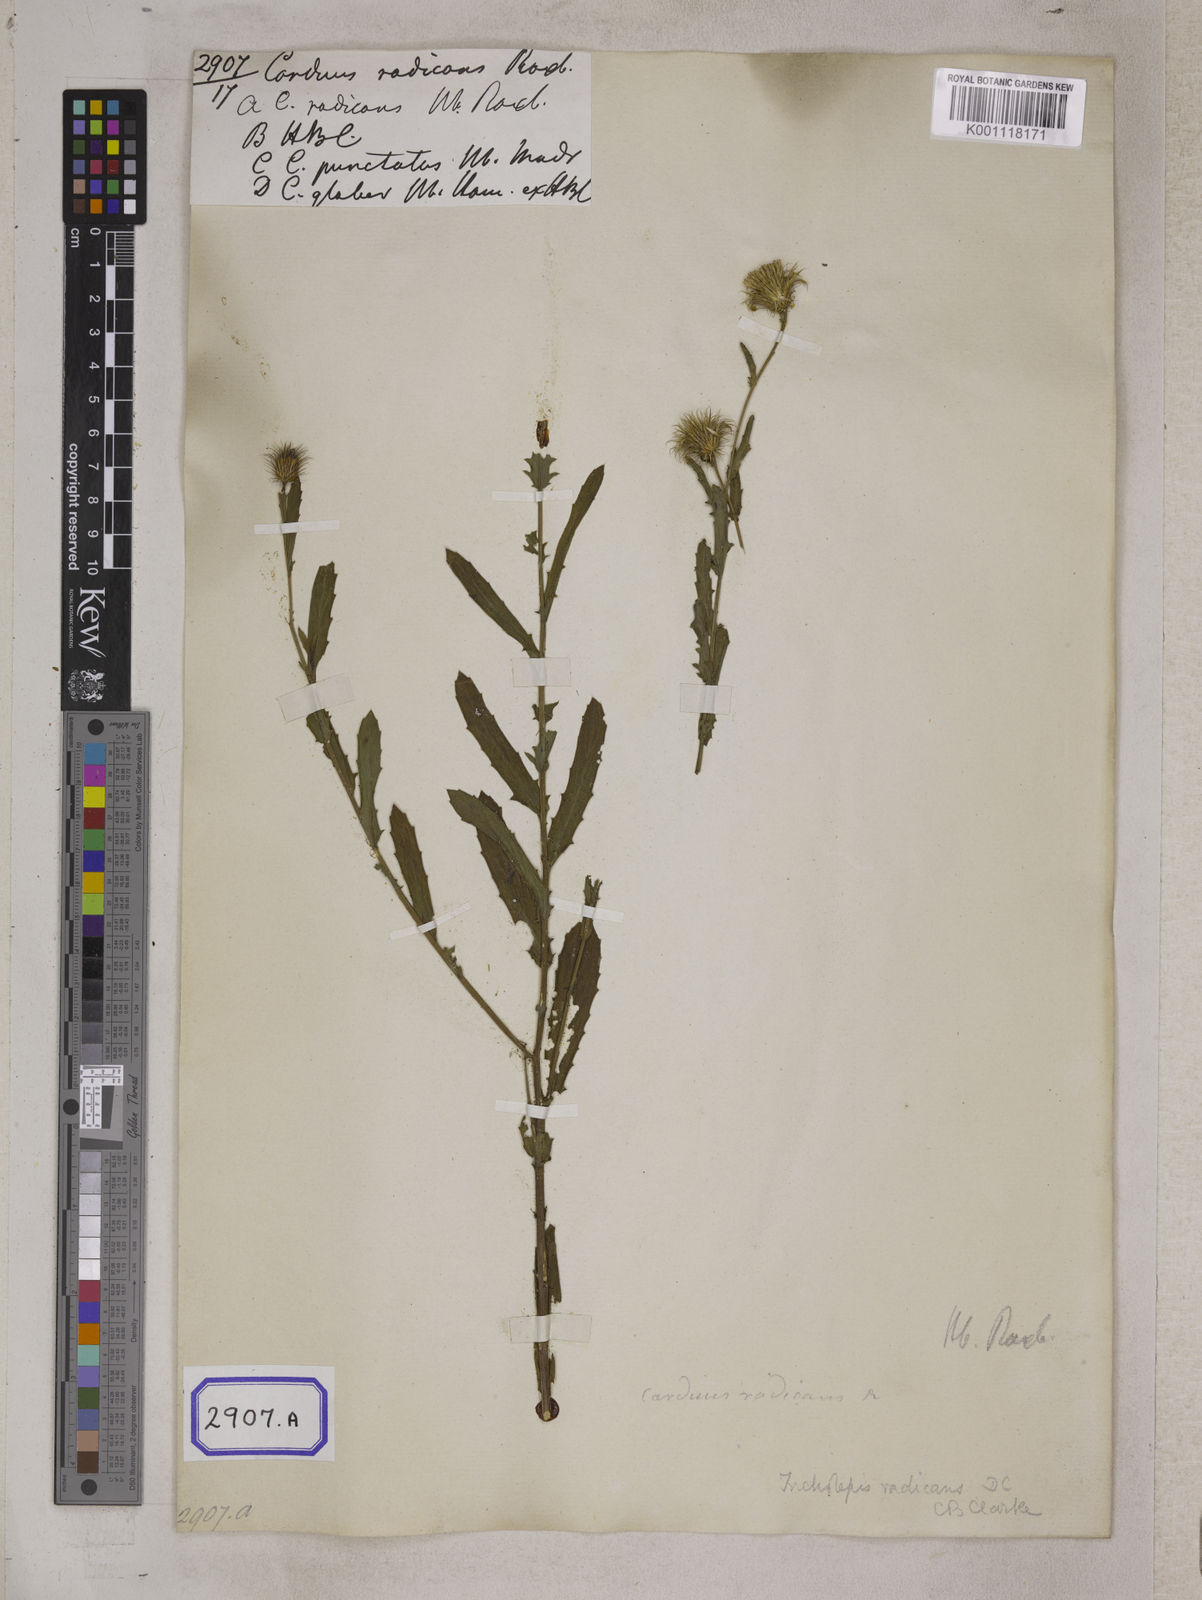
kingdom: Plantae
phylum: Tracheophyta
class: Magnoliopsida
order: Asterales
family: Asteraceae
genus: Tricholepis
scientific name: Tricholepis radicans
